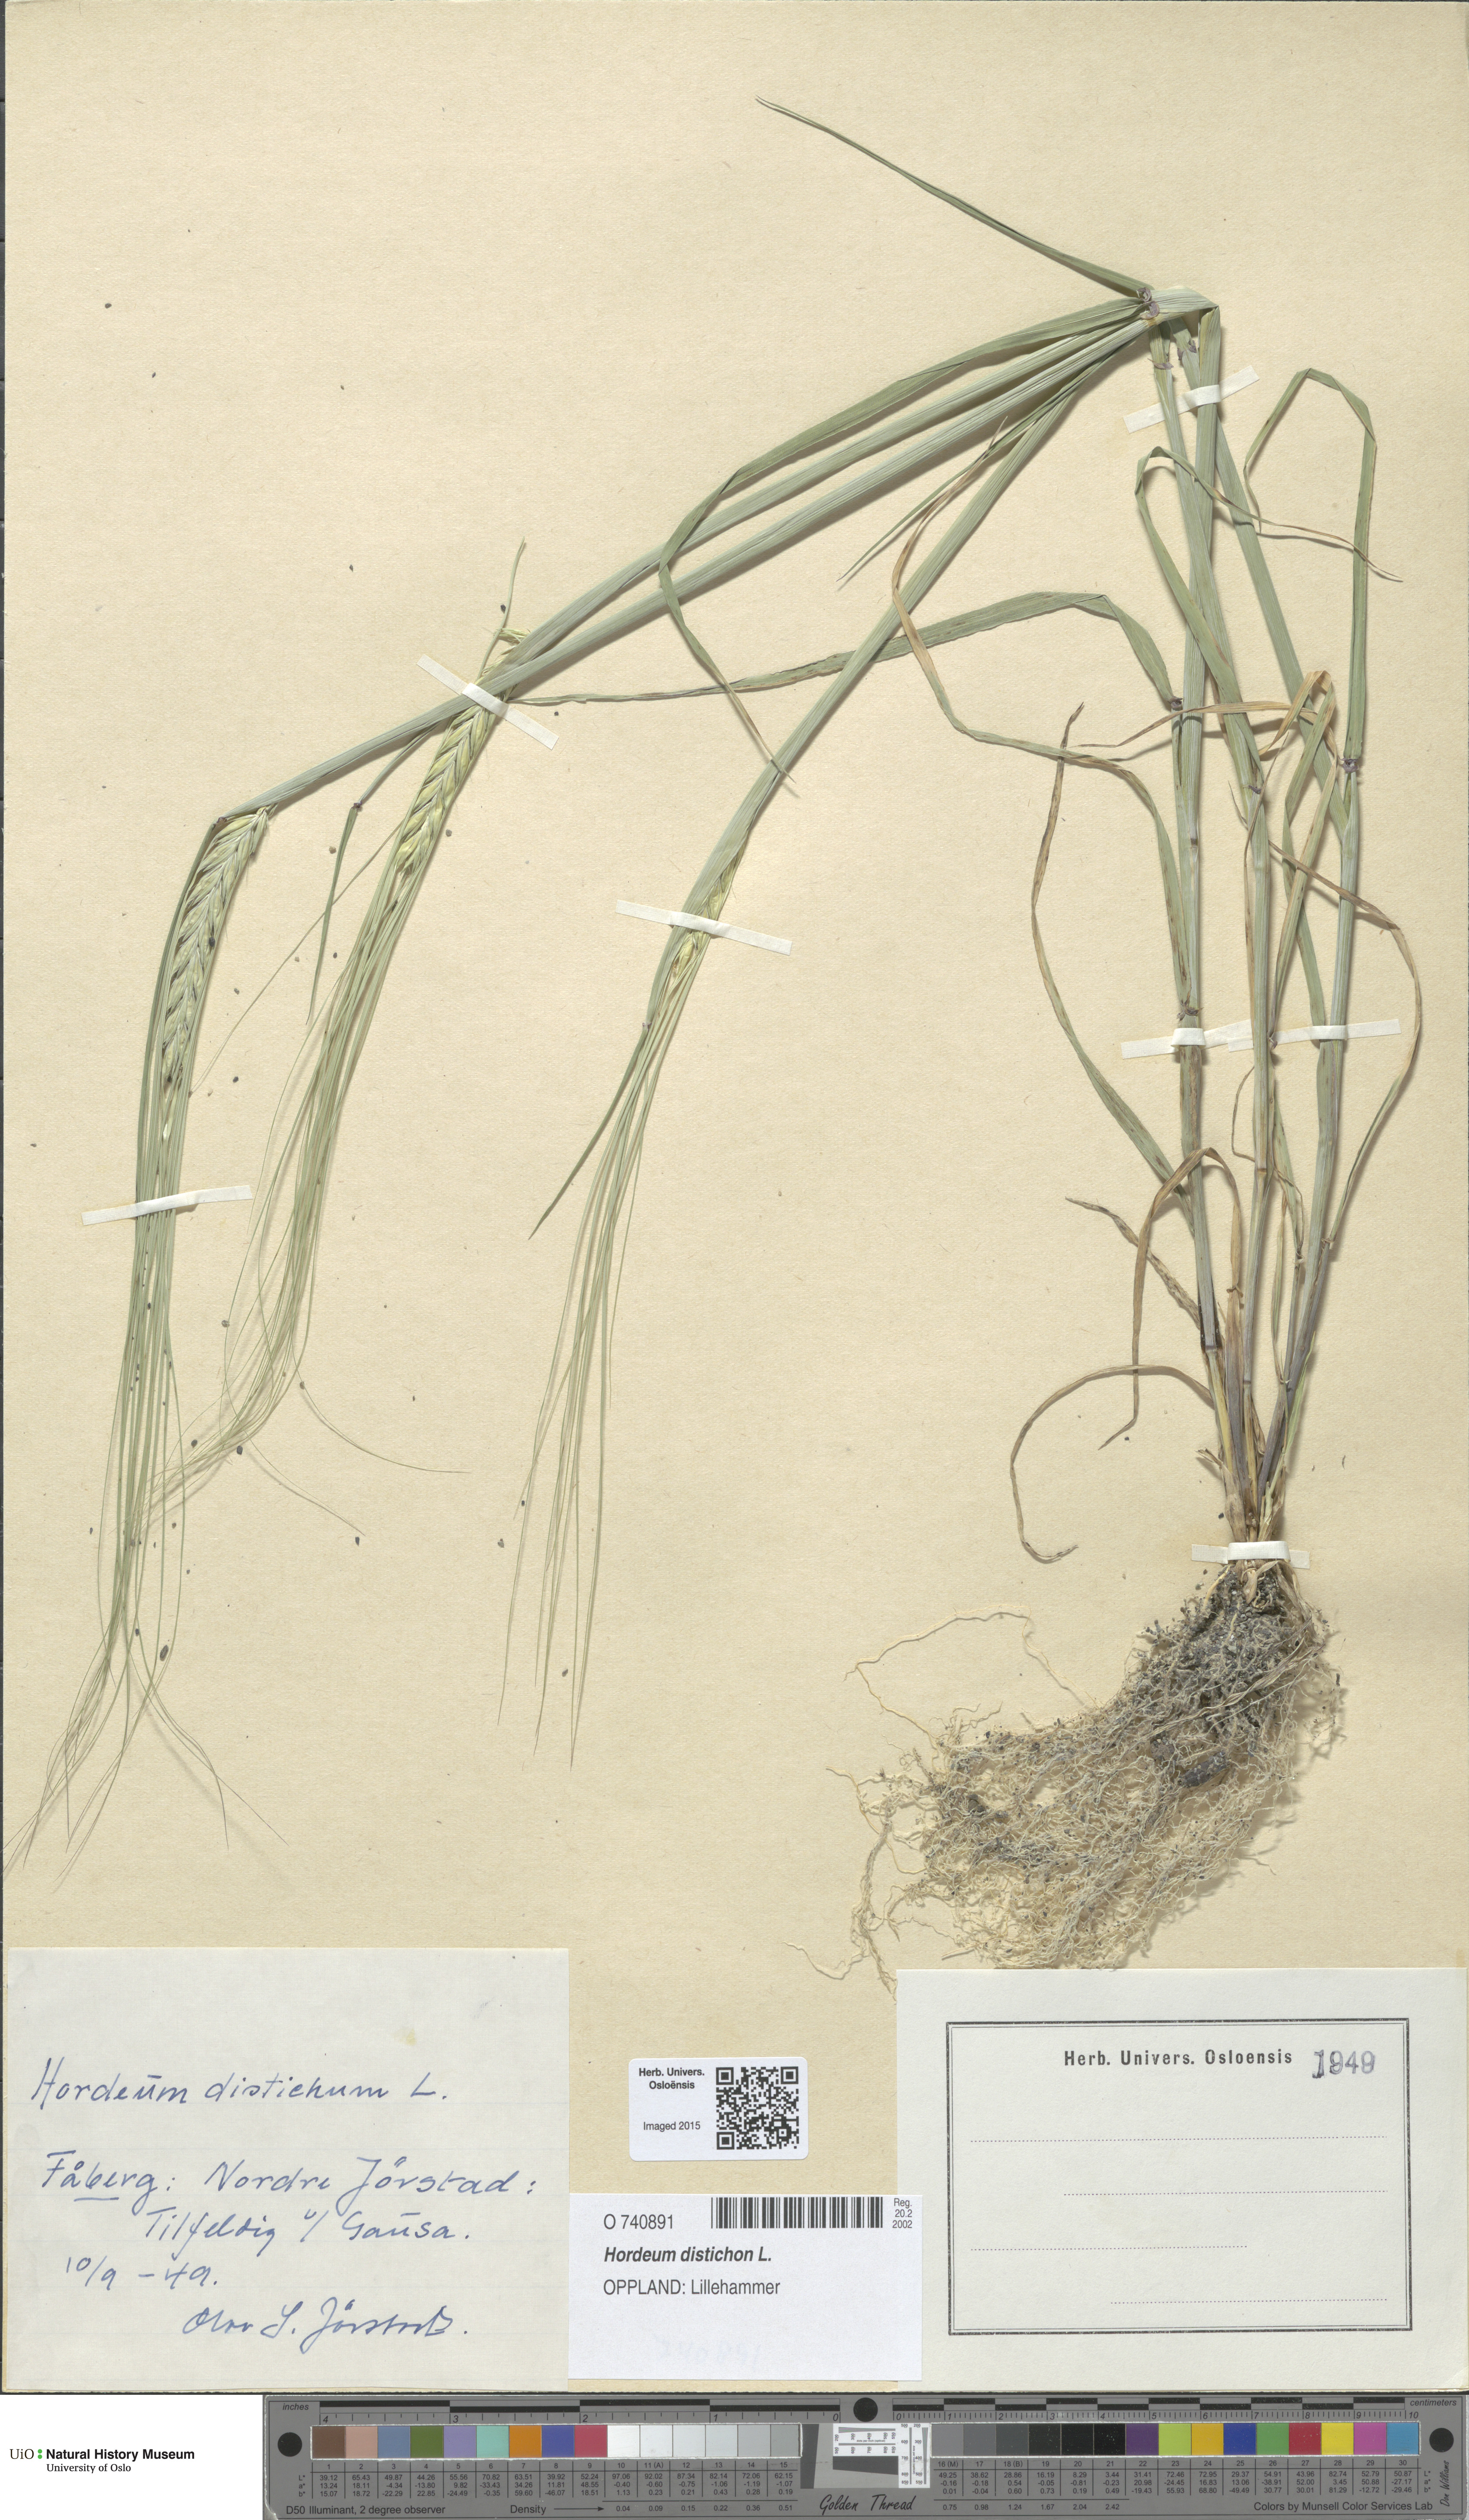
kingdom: Plantae
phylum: Tracheophyta
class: Liliopsida
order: Poales
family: Poaceae
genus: Hordeum
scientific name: Hordeum distichon
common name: Two-rowed barley
